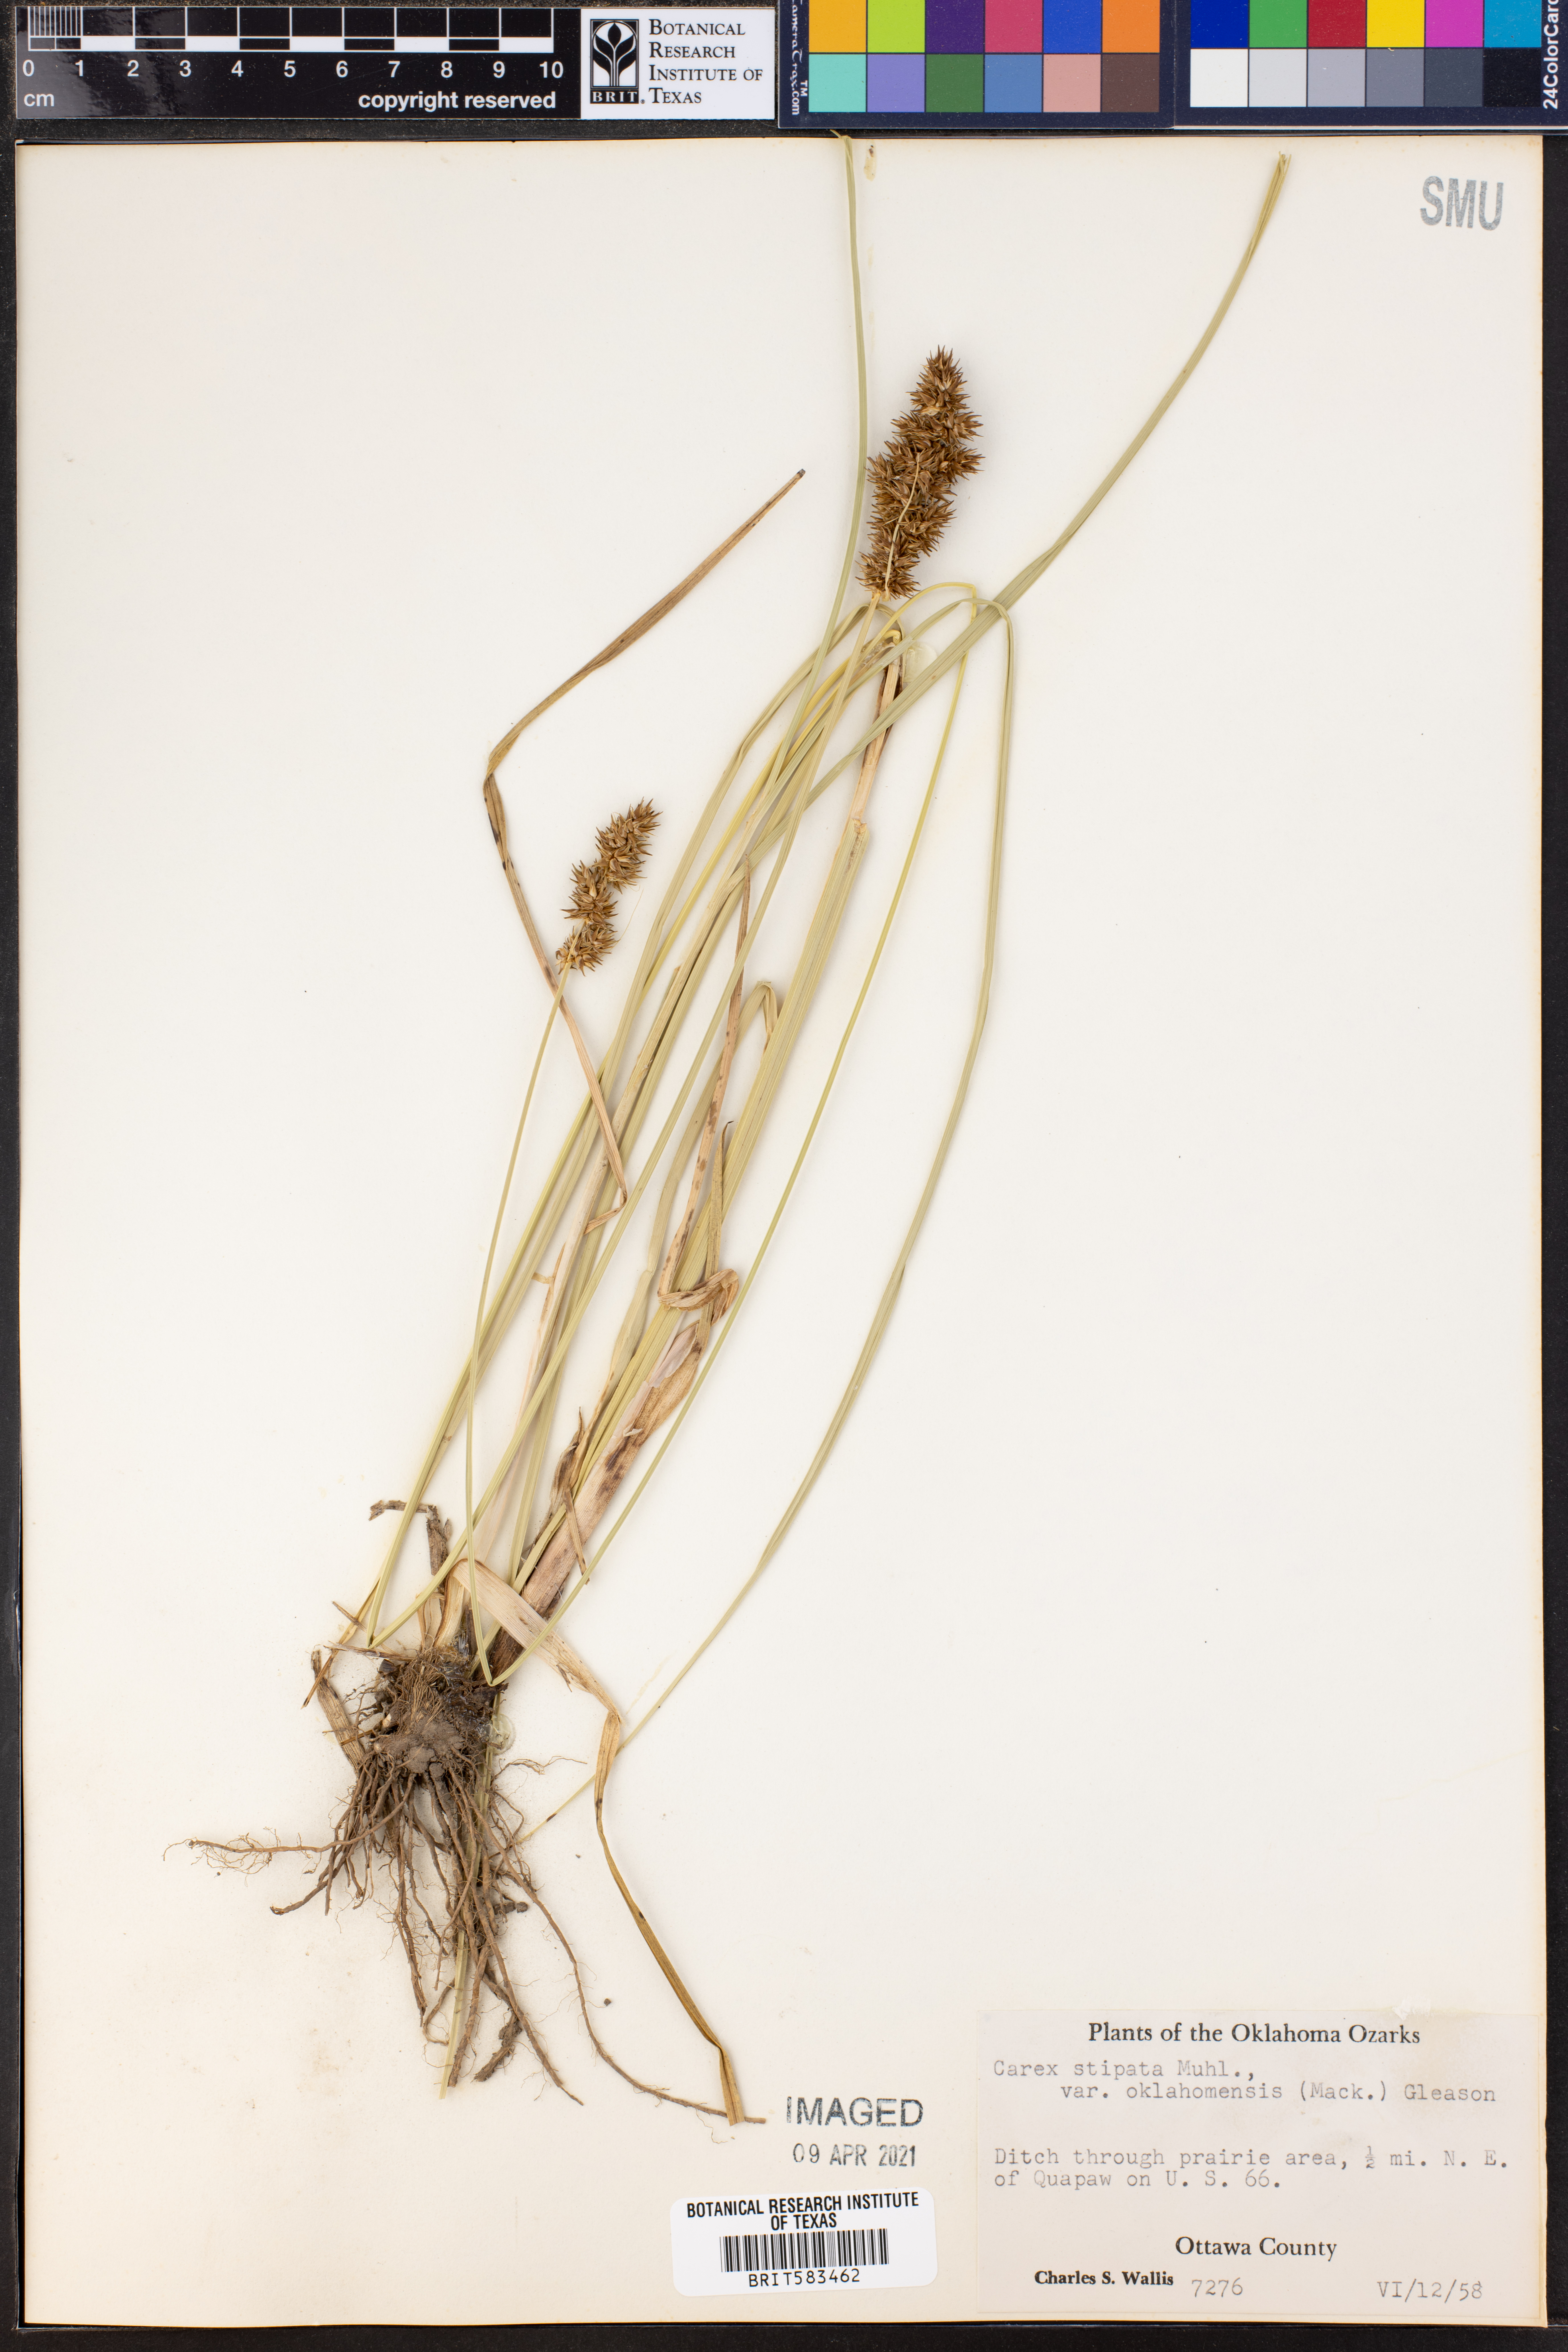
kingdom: Plantae
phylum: Tracheophyta
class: Liliopsida
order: Poales
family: Cyperaceae
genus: Carex
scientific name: Carex oklahomensis
